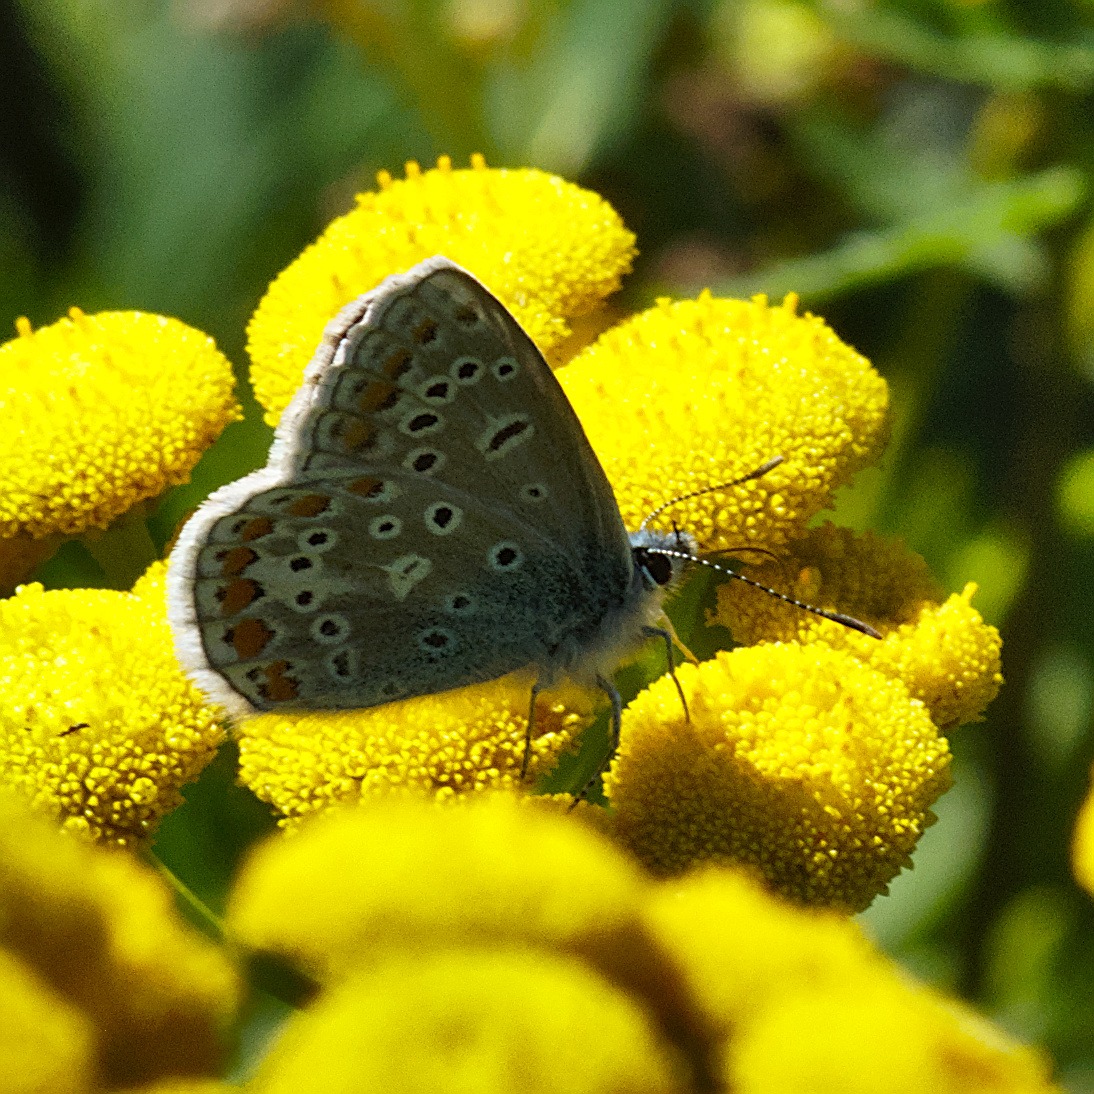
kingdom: Animalia
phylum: Arthropoda
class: Insecta
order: Lepidoptera
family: Lycaenidae
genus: Polyommatus
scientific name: Polyommatus icarus
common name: Almindelig blåfugl
